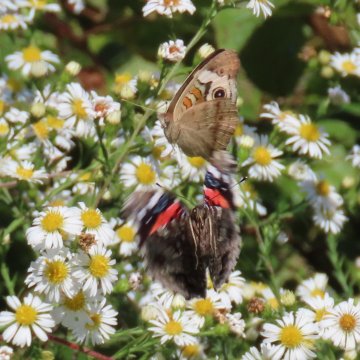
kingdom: Animalia
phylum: Arthropoda
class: Insecta
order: Lepidoptera
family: Nymphalidae
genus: Junonia
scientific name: Junonia coenia
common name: Common Buckeye
